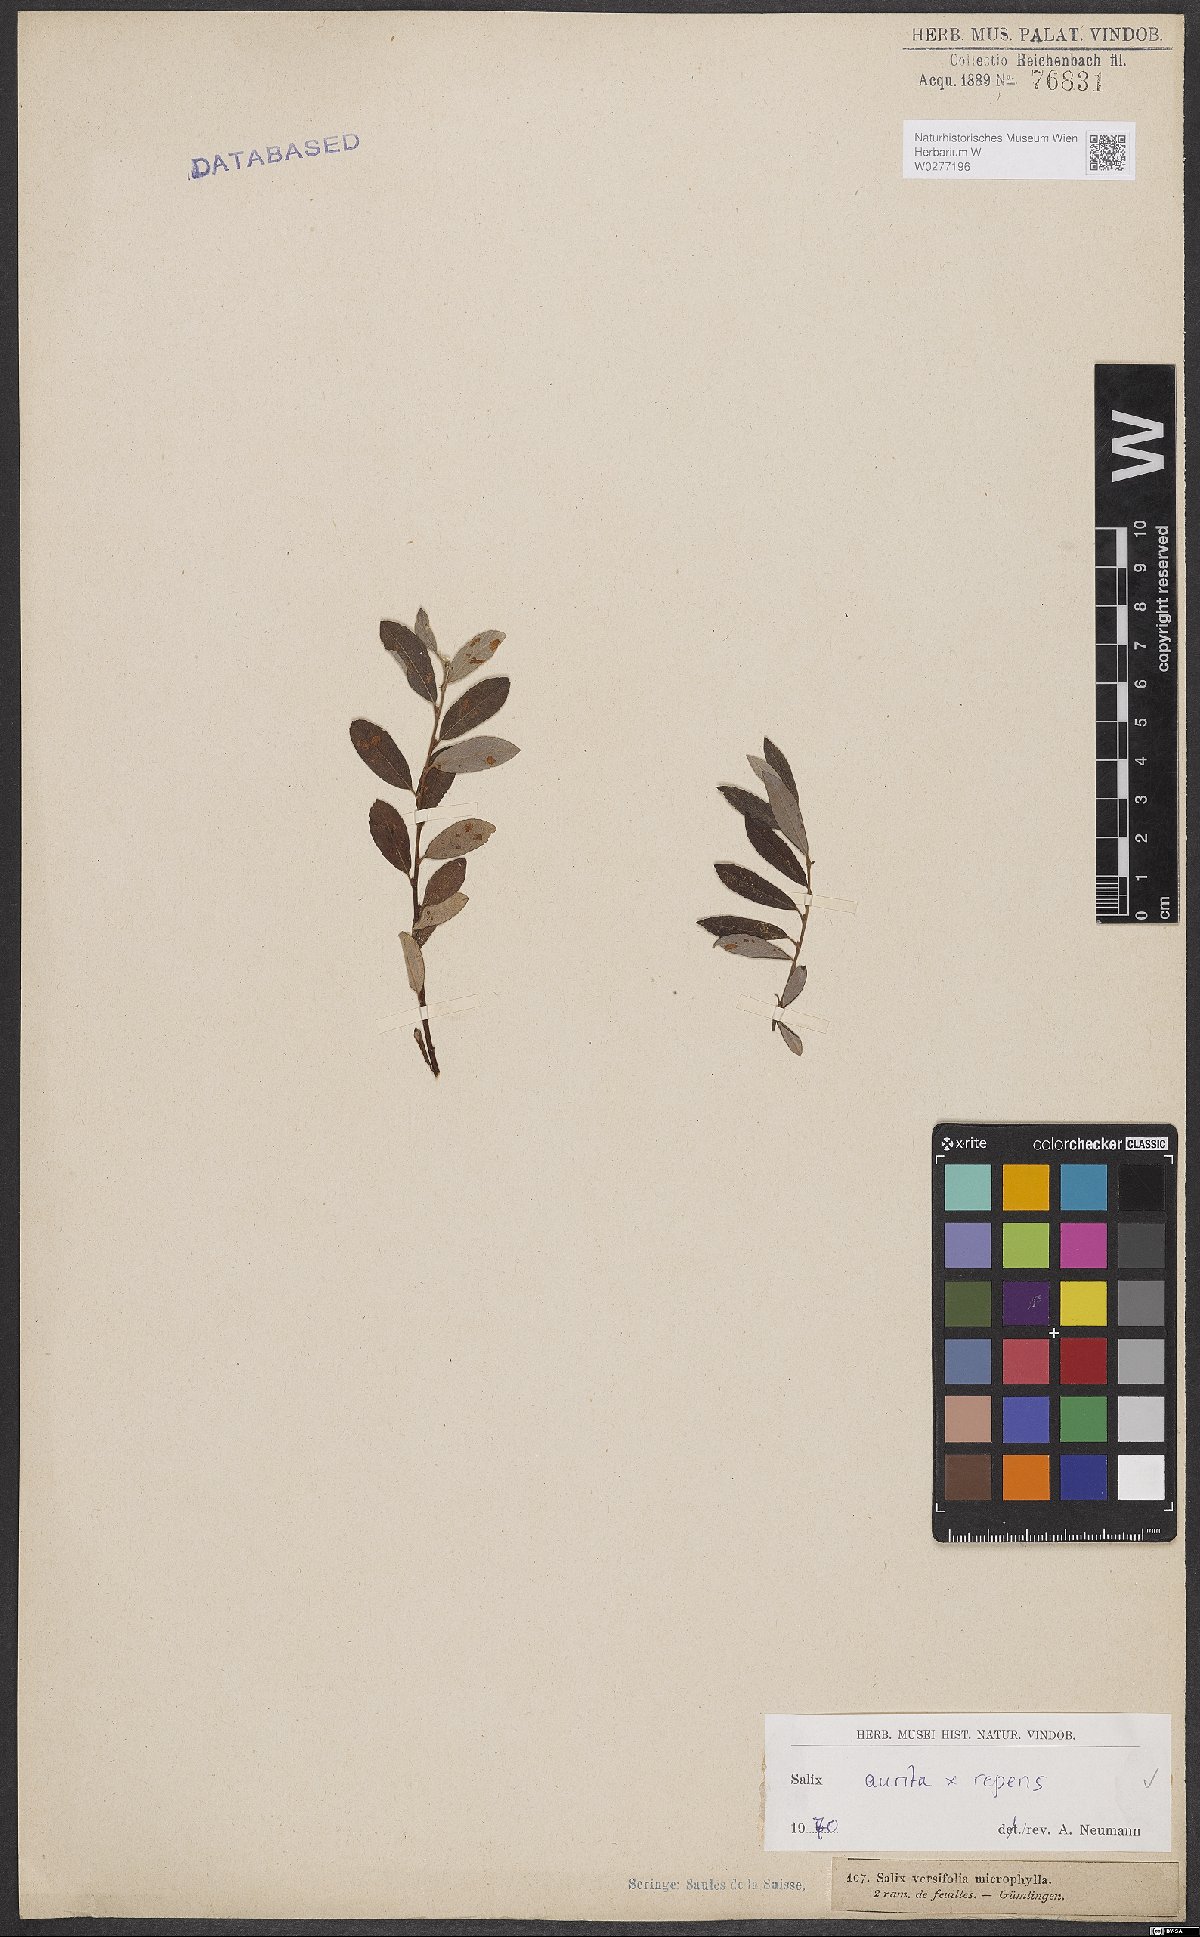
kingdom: Plantae
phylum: Tracheophyta
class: Magnoliopsida
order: Malpighiales
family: Salicaceae
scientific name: Salicaceae
